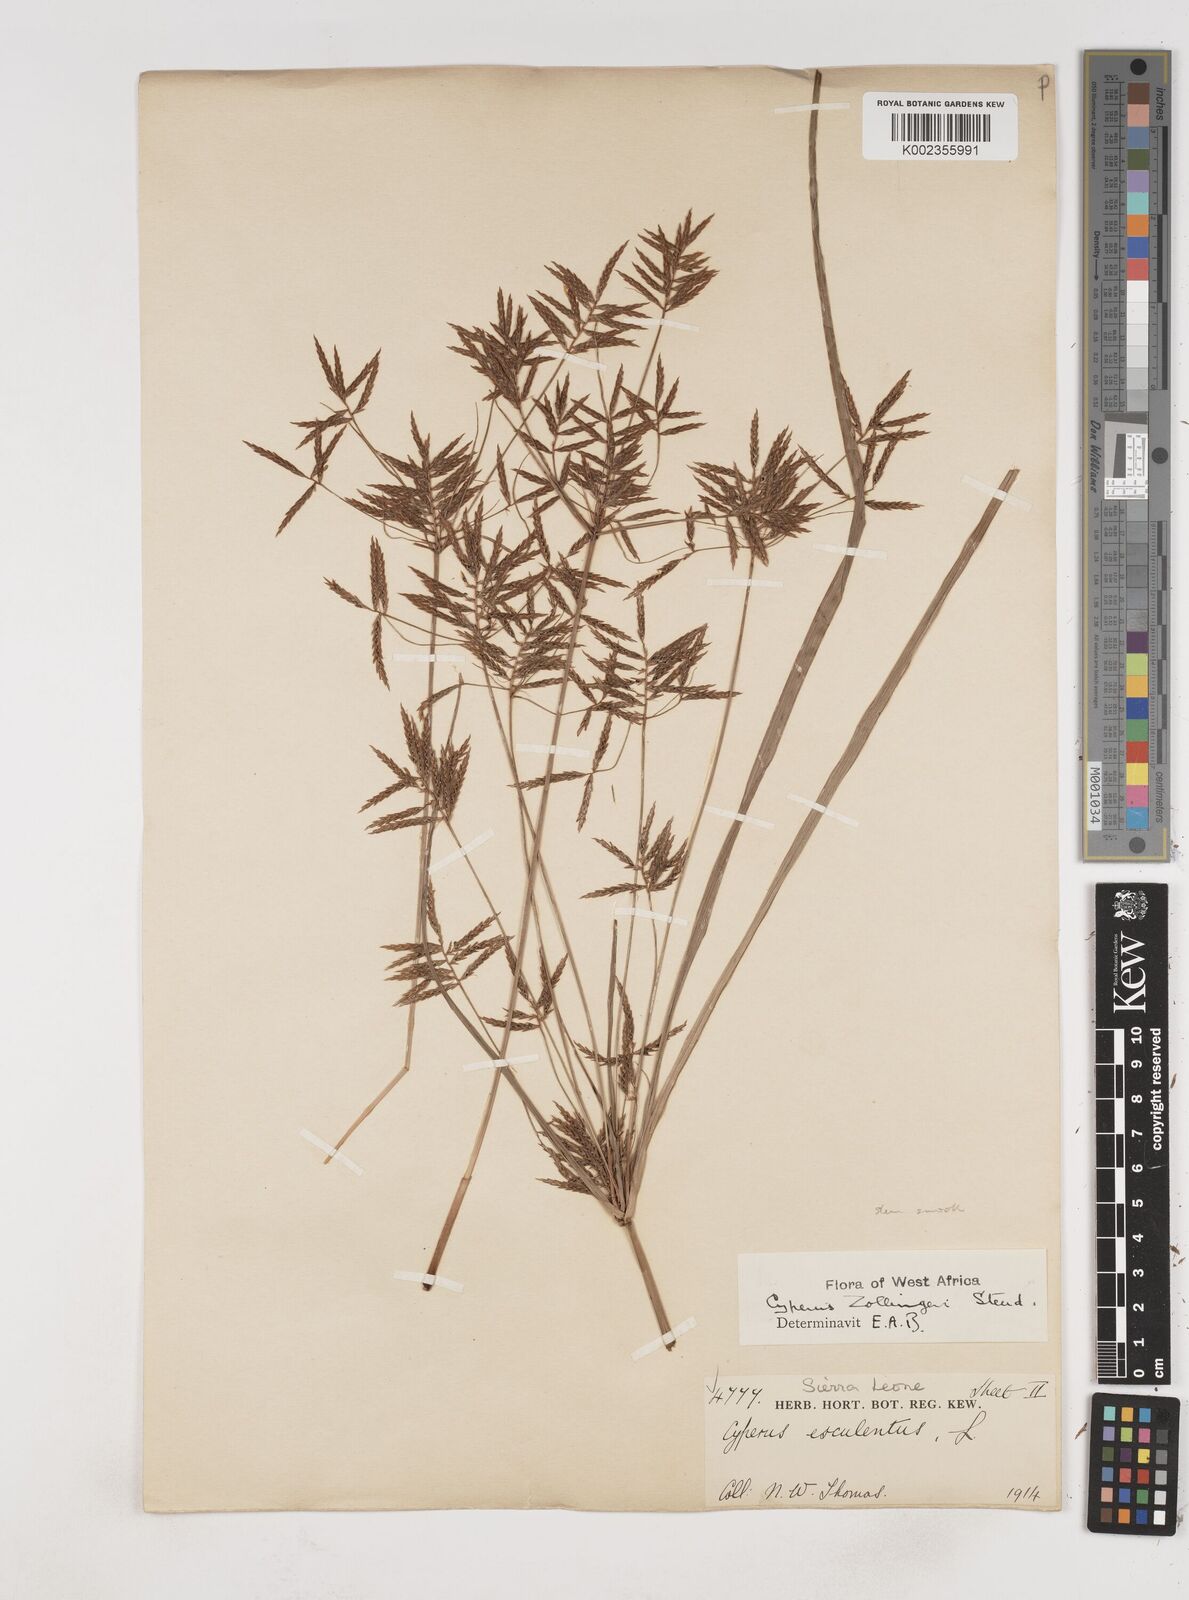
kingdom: Plantae
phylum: Tracheophyta
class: Liliopsida
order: Poales
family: Cyperaceae
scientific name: Cyperaceae
